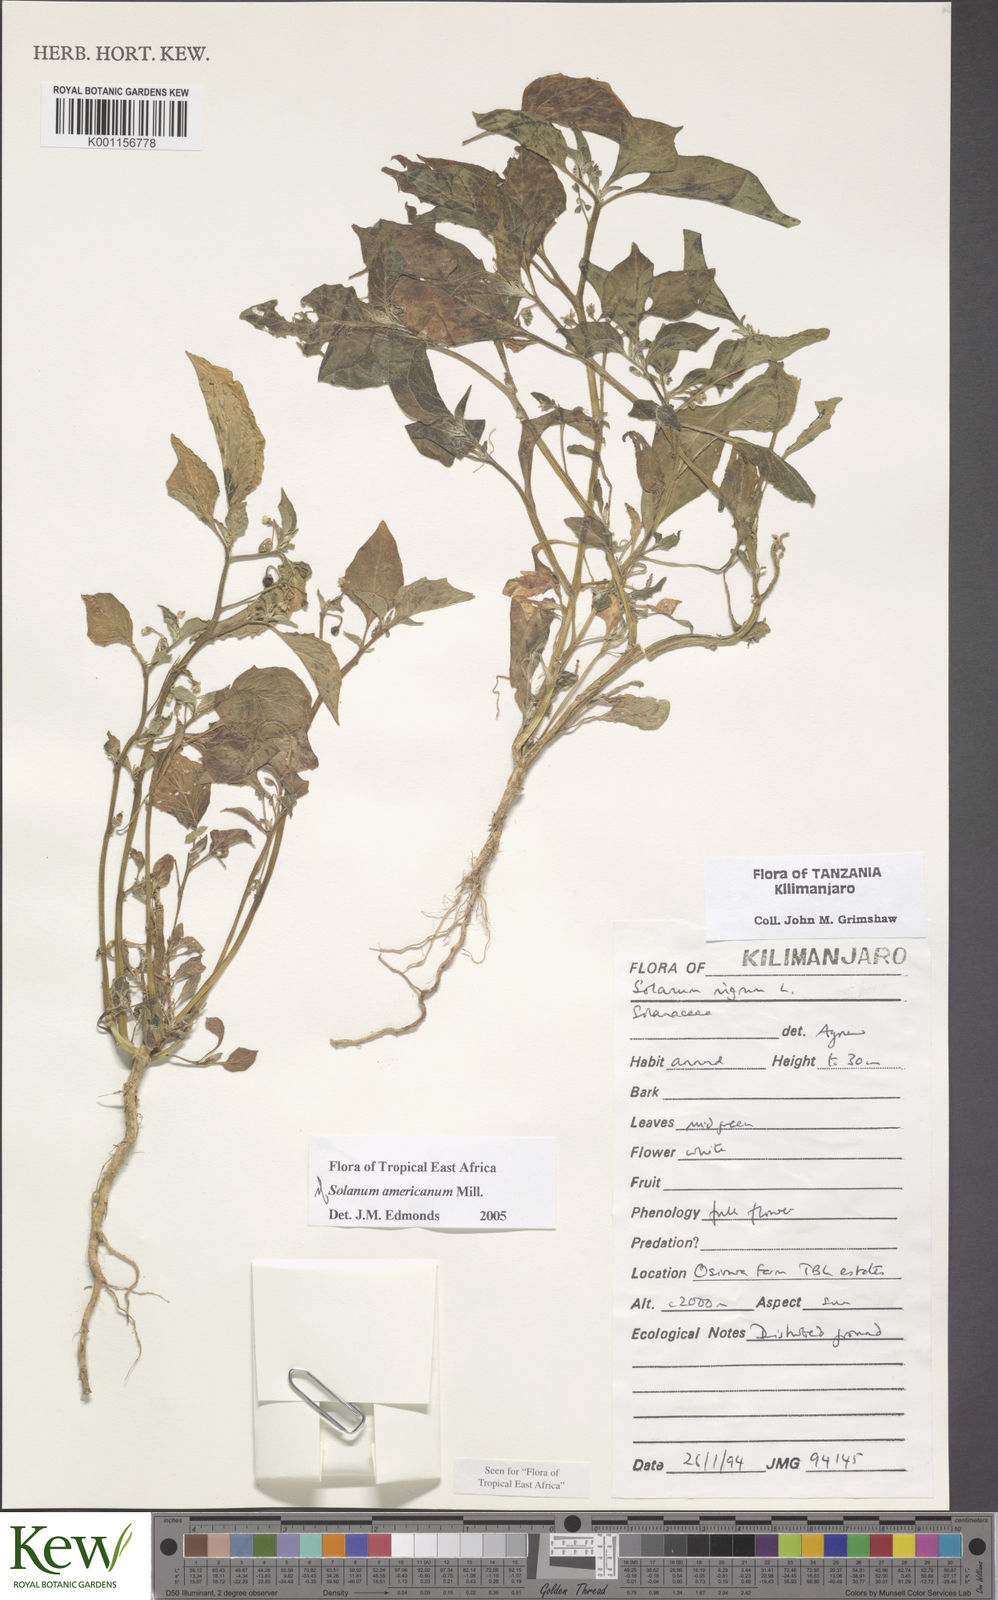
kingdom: Plantae
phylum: Tracheophyta
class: Magnoliopsida
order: Solanales
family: Solanaceae
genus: Solanum
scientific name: Solanum americanum
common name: American black nightshade
